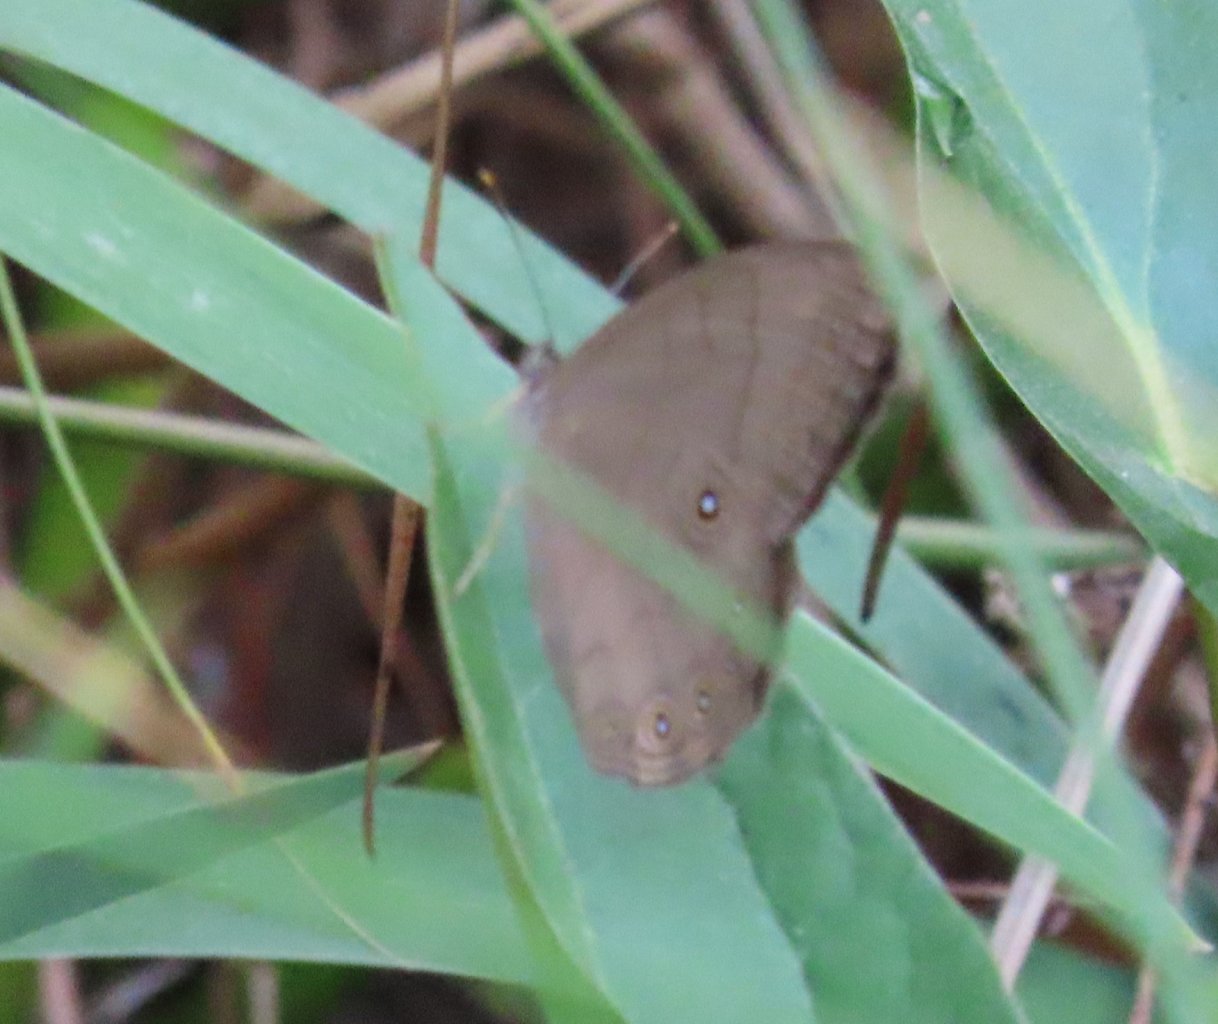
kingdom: Animalia
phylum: Arthropoda
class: Insecta
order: Lepidoptera
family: Nymphalidae
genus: Lethe
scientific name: Lethe eurydice
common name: Appalachian Eyed Brown
